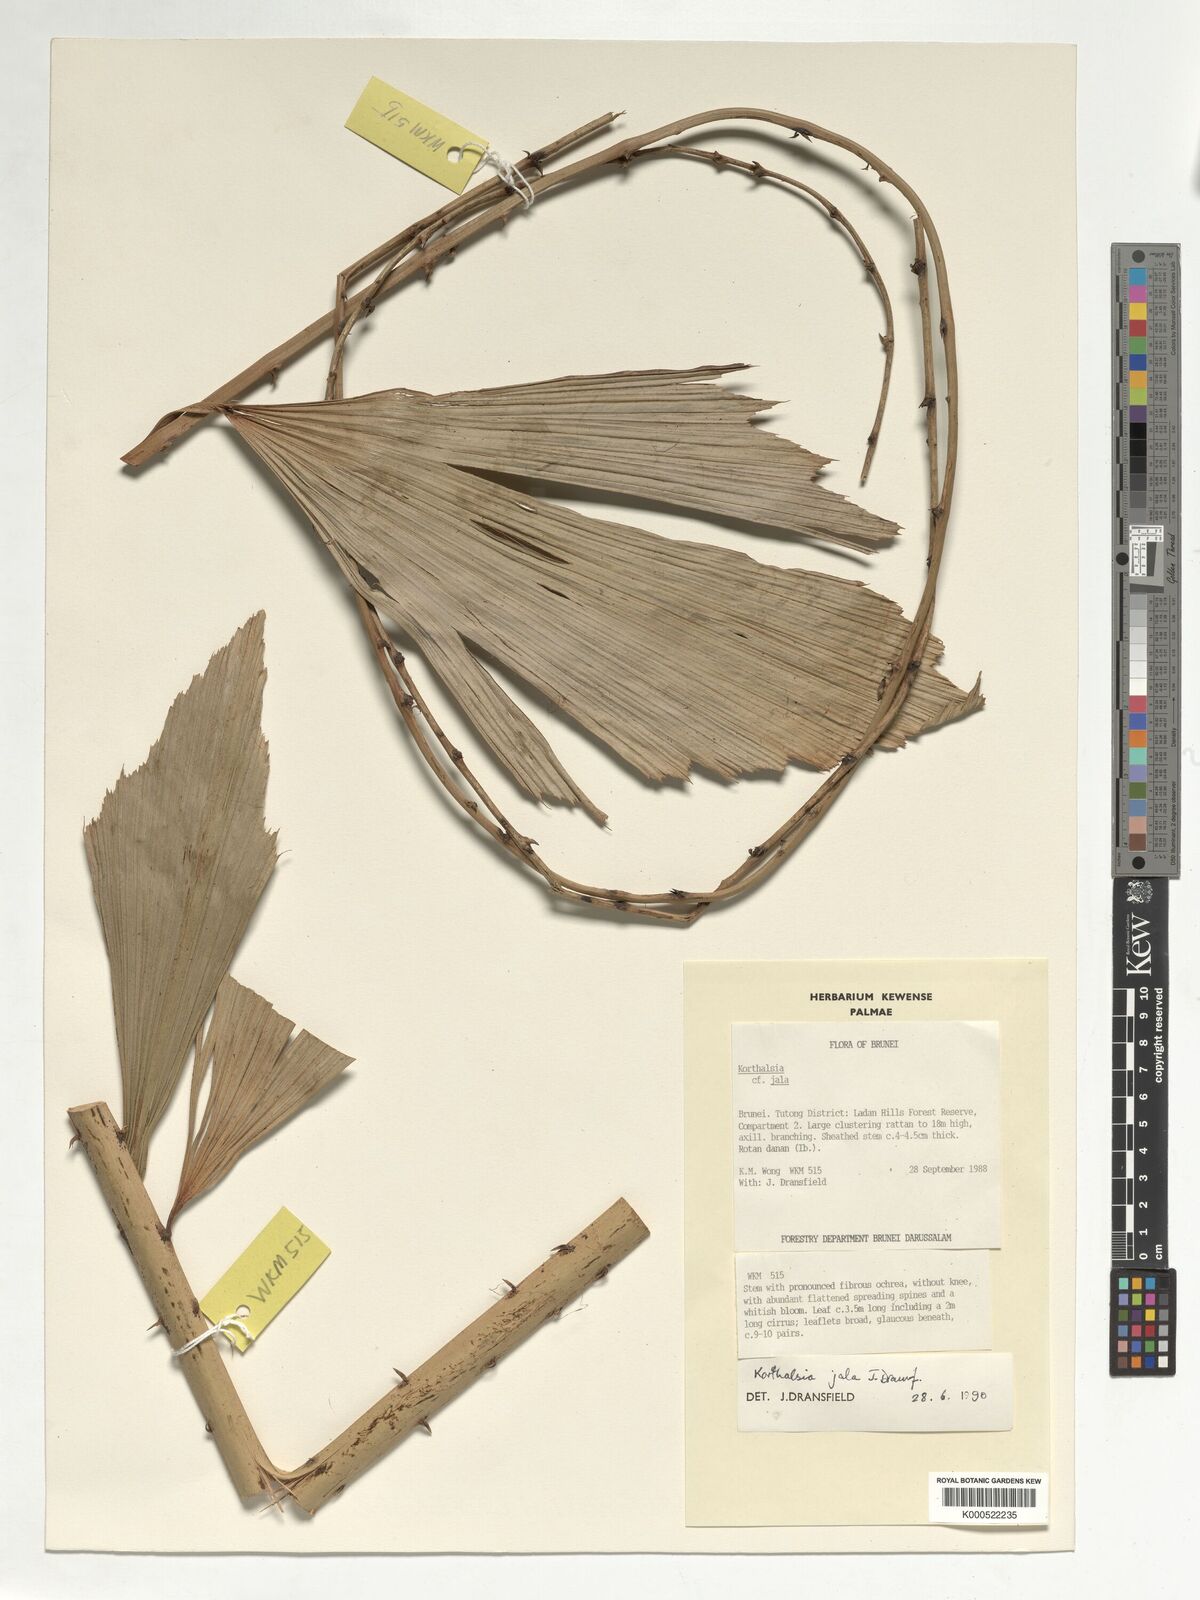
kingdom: Plantae
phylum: Tracheophyta
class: Liliopsida
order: Arecales
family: Arecaceae
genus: Korthalsia
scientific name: Korthalsia jala
